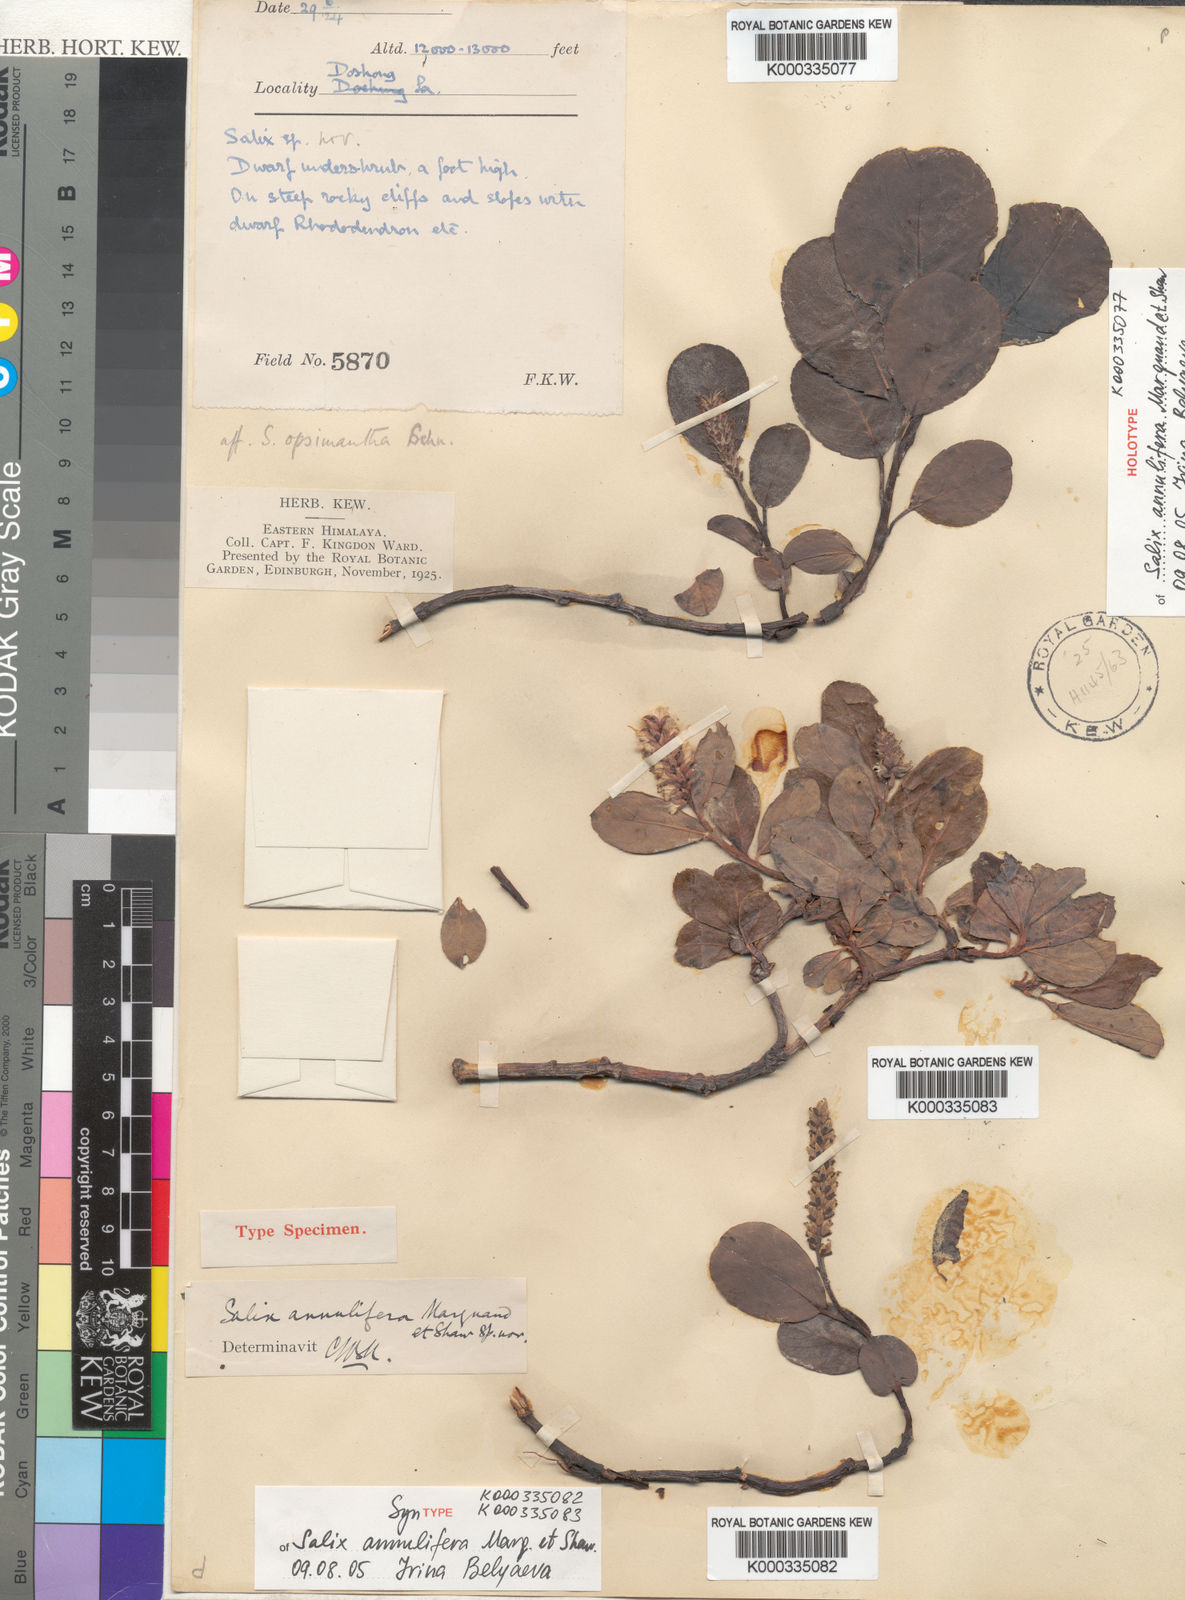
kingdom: Plantae
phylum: Tracheophyta
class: Magnoliopsida
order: Malpighiales
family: Salicaceae
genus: Salix
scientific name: Salix
